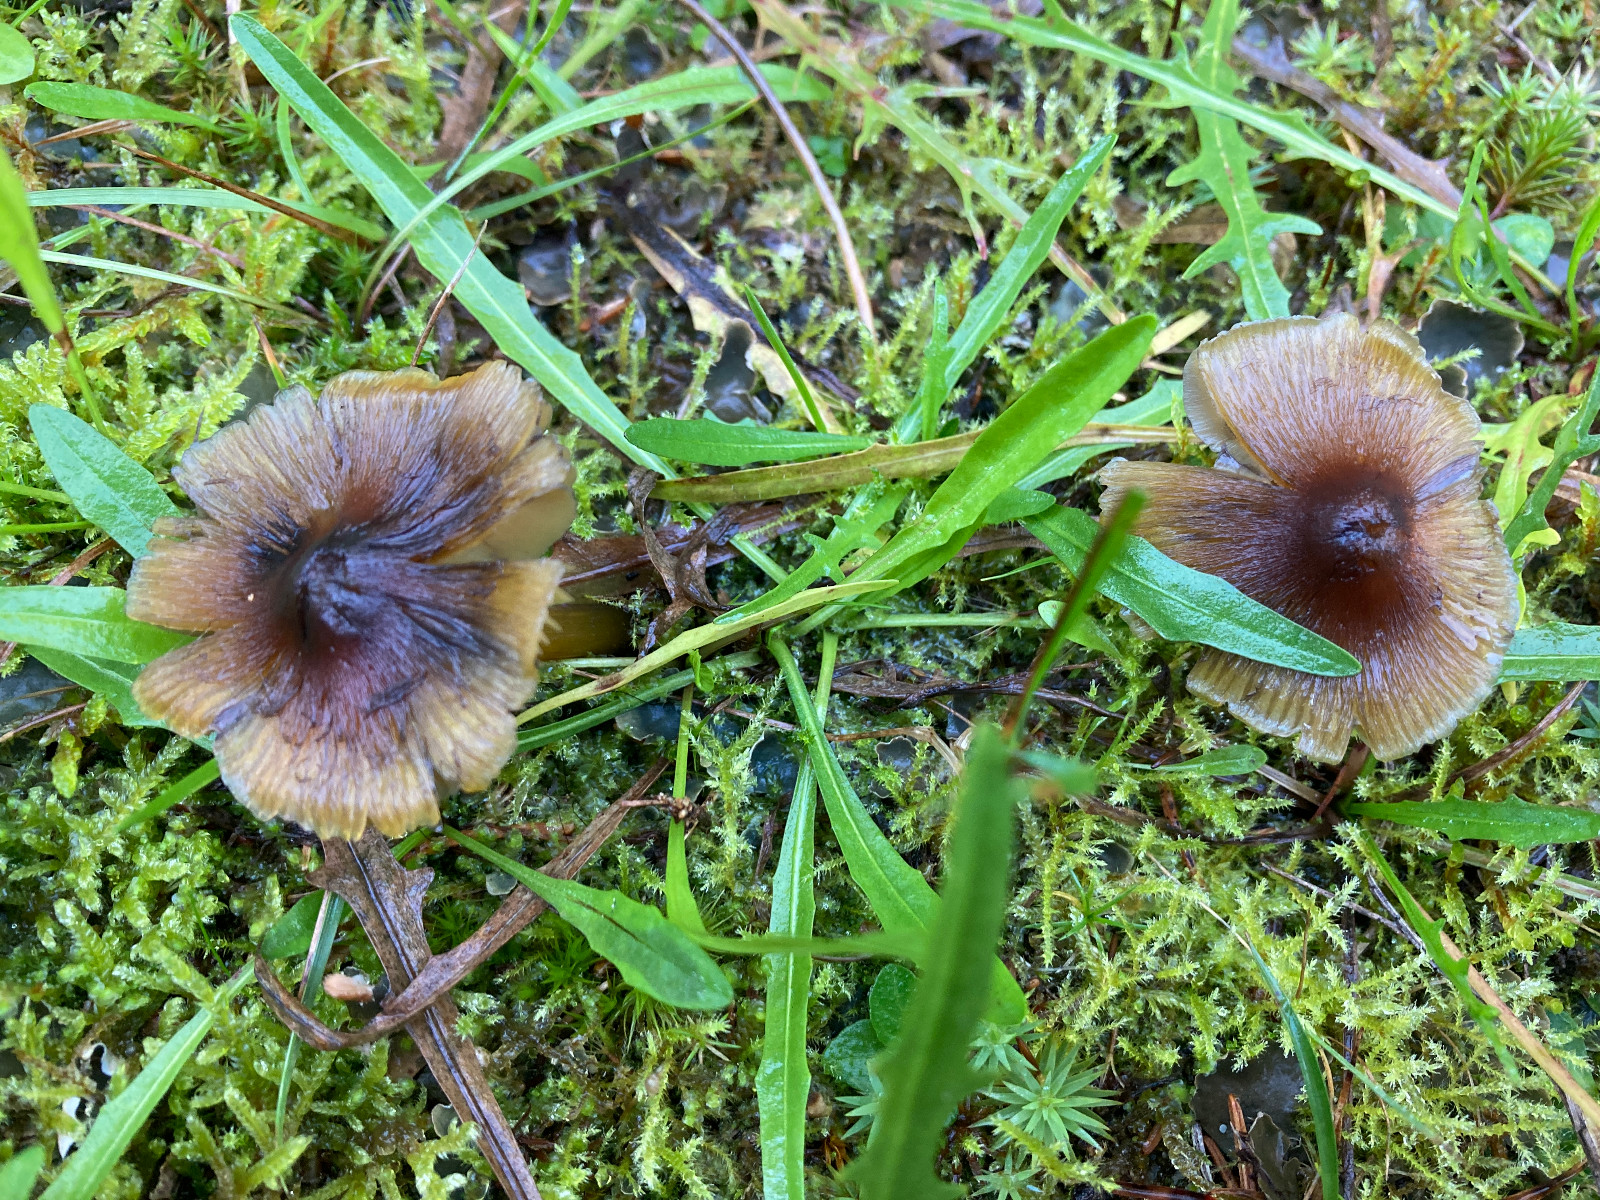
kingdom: Fungi
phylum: Basidiomycota
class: Agaricomycetes
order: Agaricales
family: Hygrophoraceae
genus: Hygrocybe
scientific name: Hygrocybe conica
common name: kegle-vokshat
